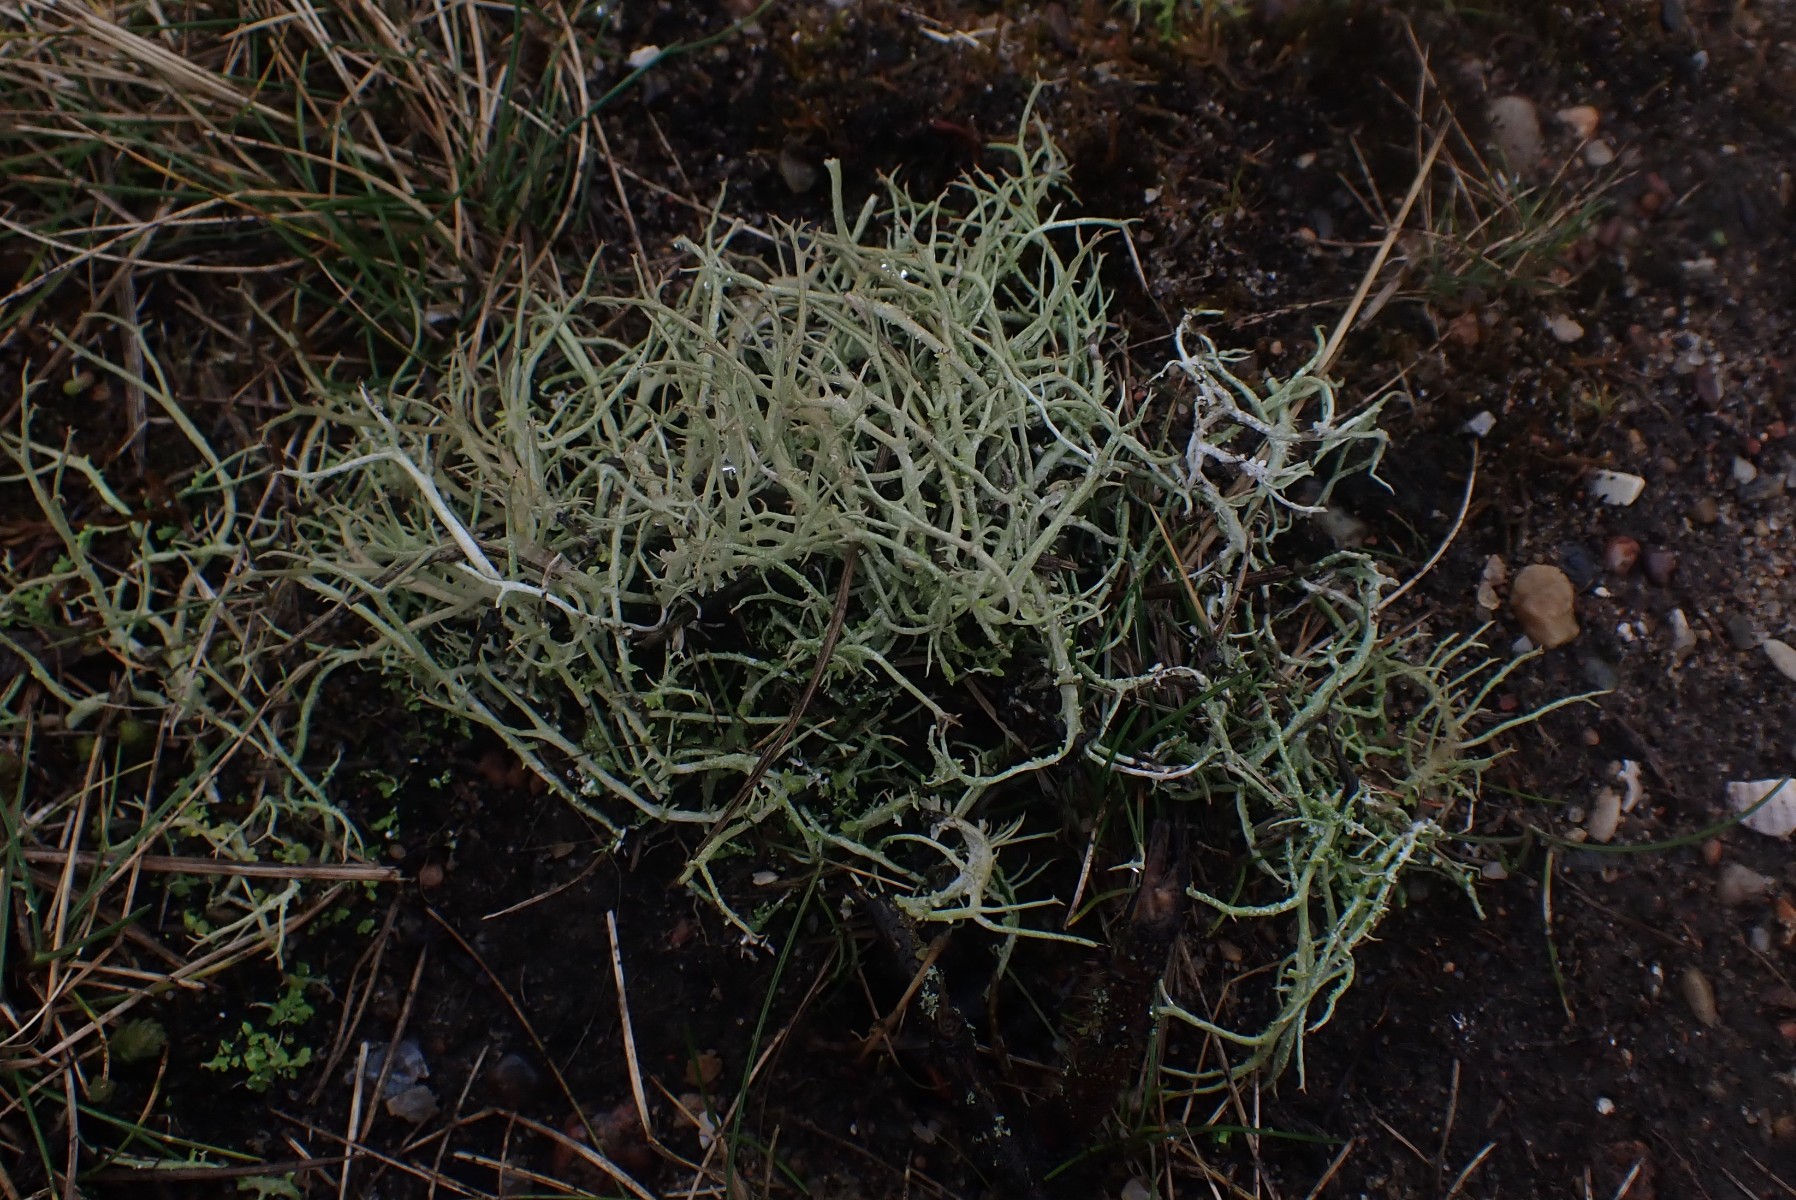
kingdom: Fungi
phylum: Ascomycota
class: Lecanoromycetes
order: Lecanorales
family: Cladoniaceae
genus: Cladonia
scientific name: Cladonia furcata
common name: kløftet bægerlav
